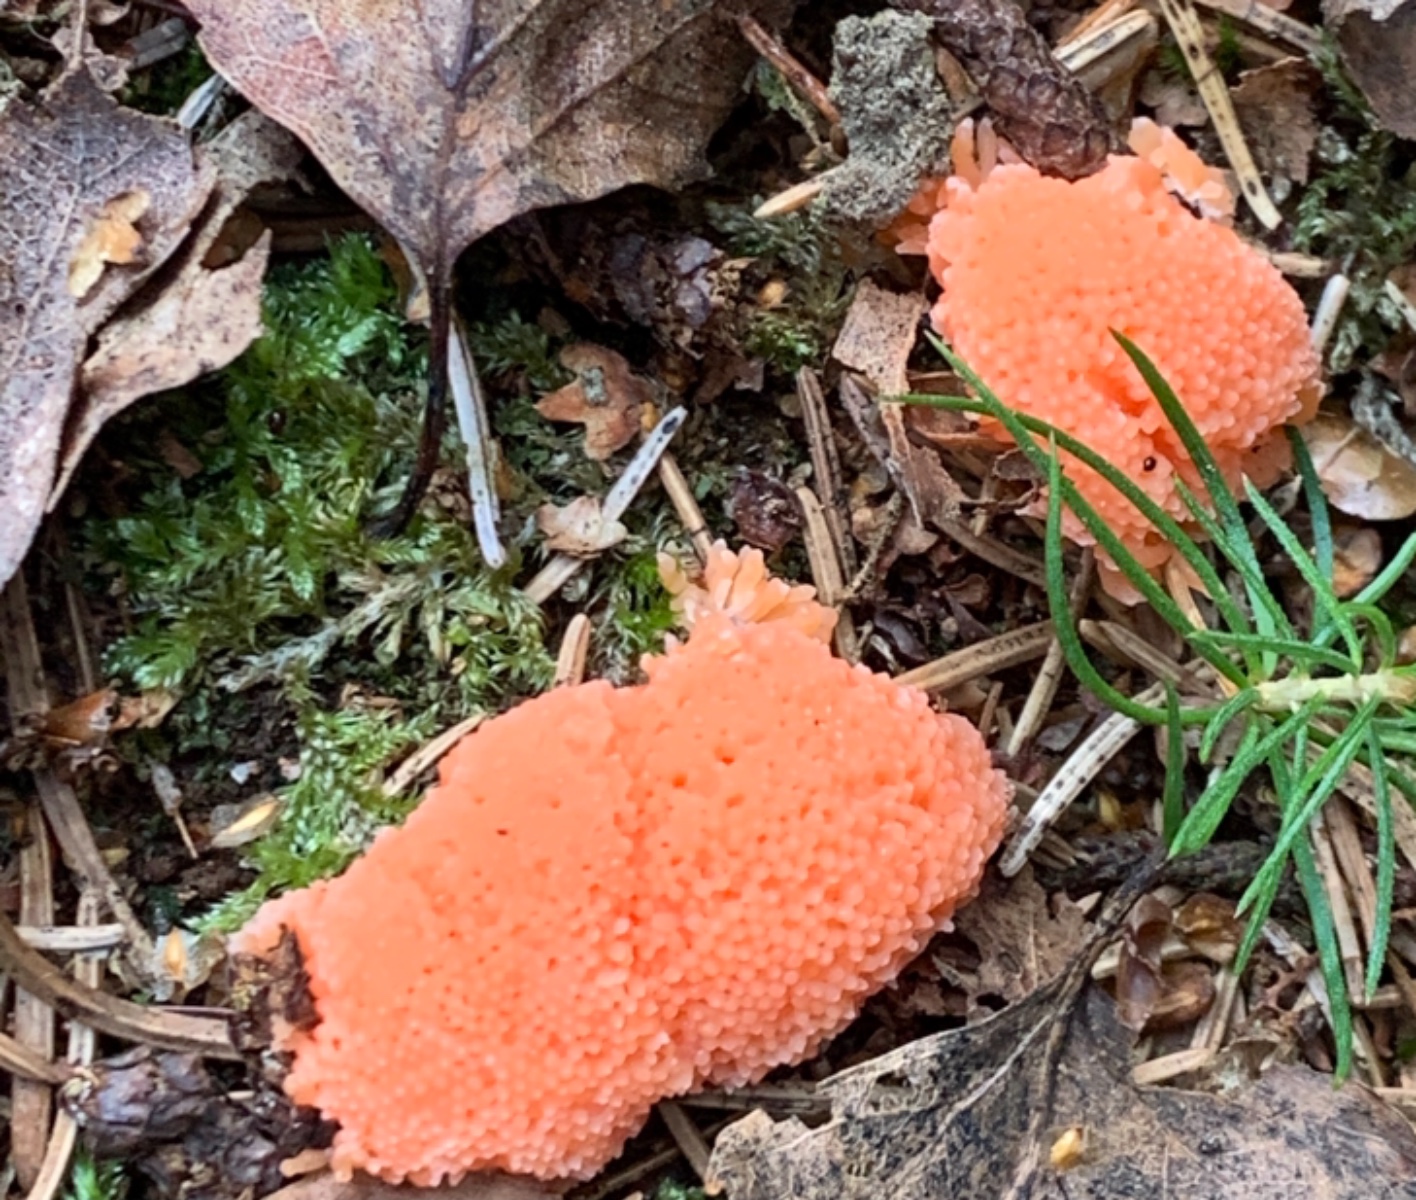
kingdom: Protozoa
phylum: Mycetozoa
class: Myxomycetes
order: Cribrariales
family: Tubiferaceae
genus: Tubifera
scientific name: Tubifera ferruginosa
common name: kanel-støvrør
